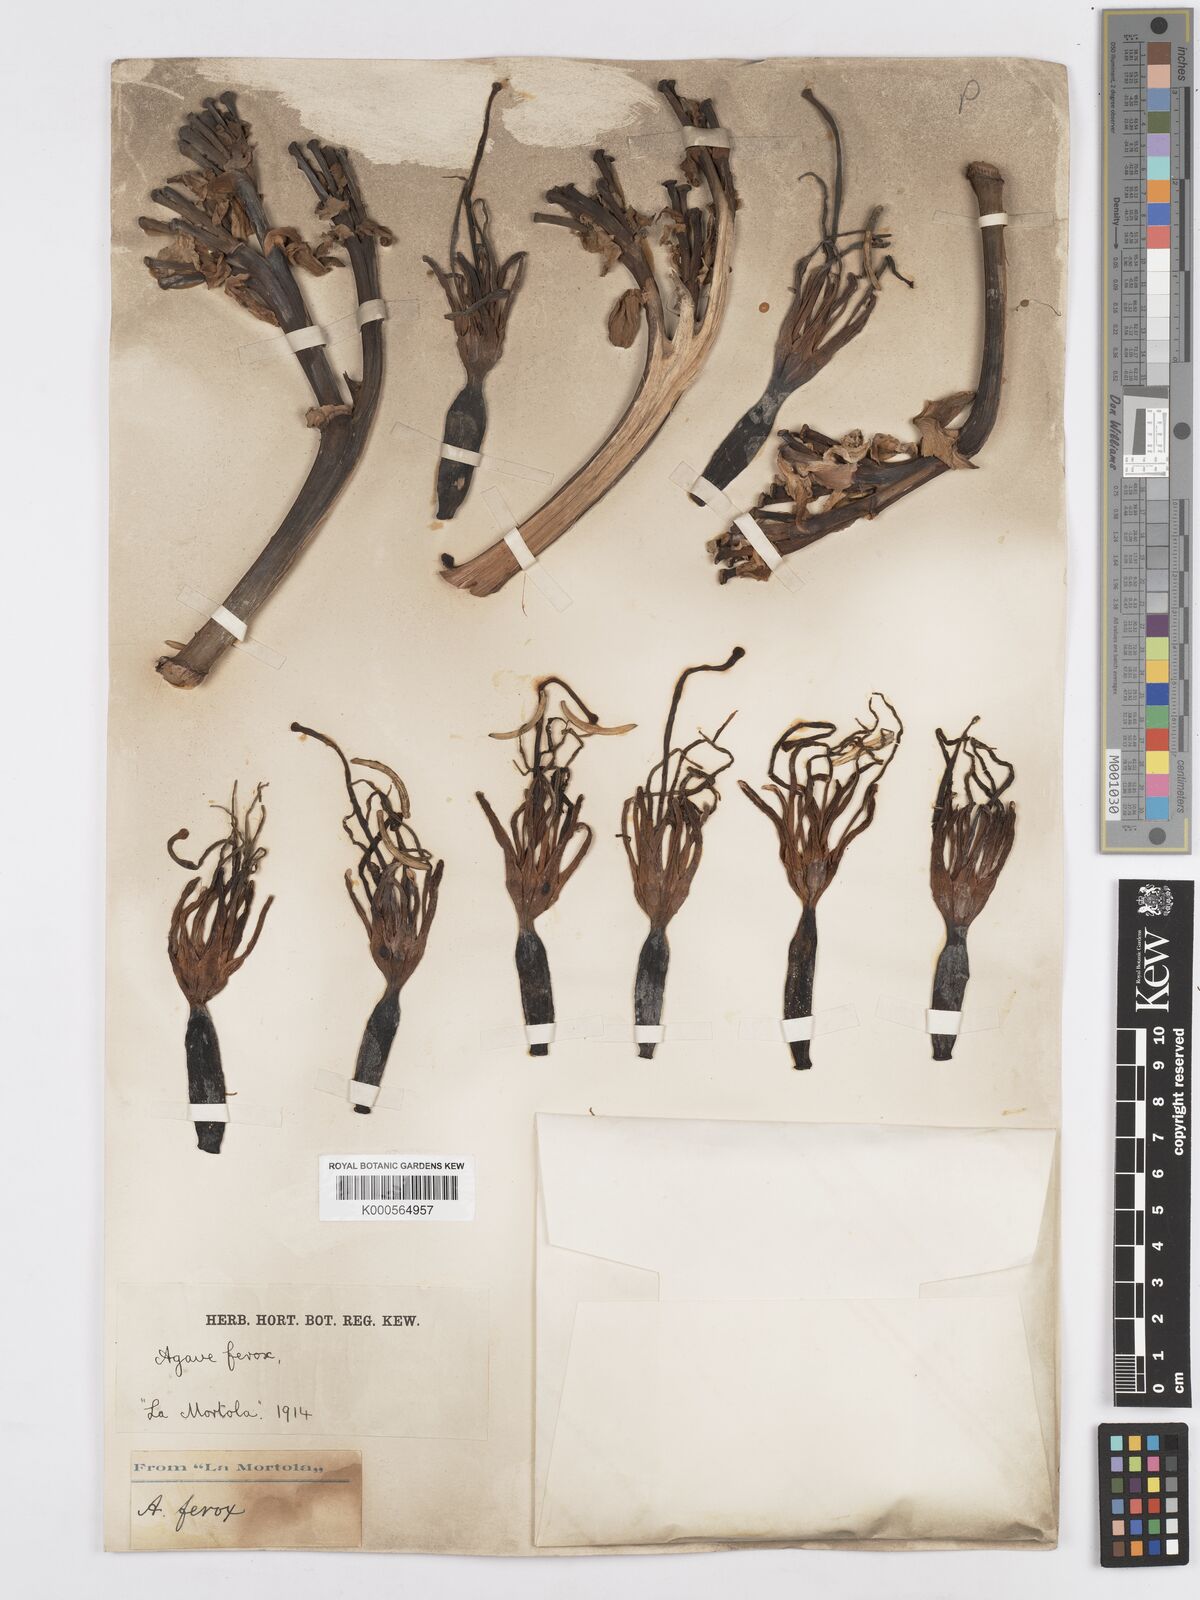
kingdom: Plantae
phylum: Tracheophyta
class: Liliopsida
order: Asparagales
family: Asparagaceae
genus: Agave
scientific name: Agave salmiana
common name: Pulque agave
